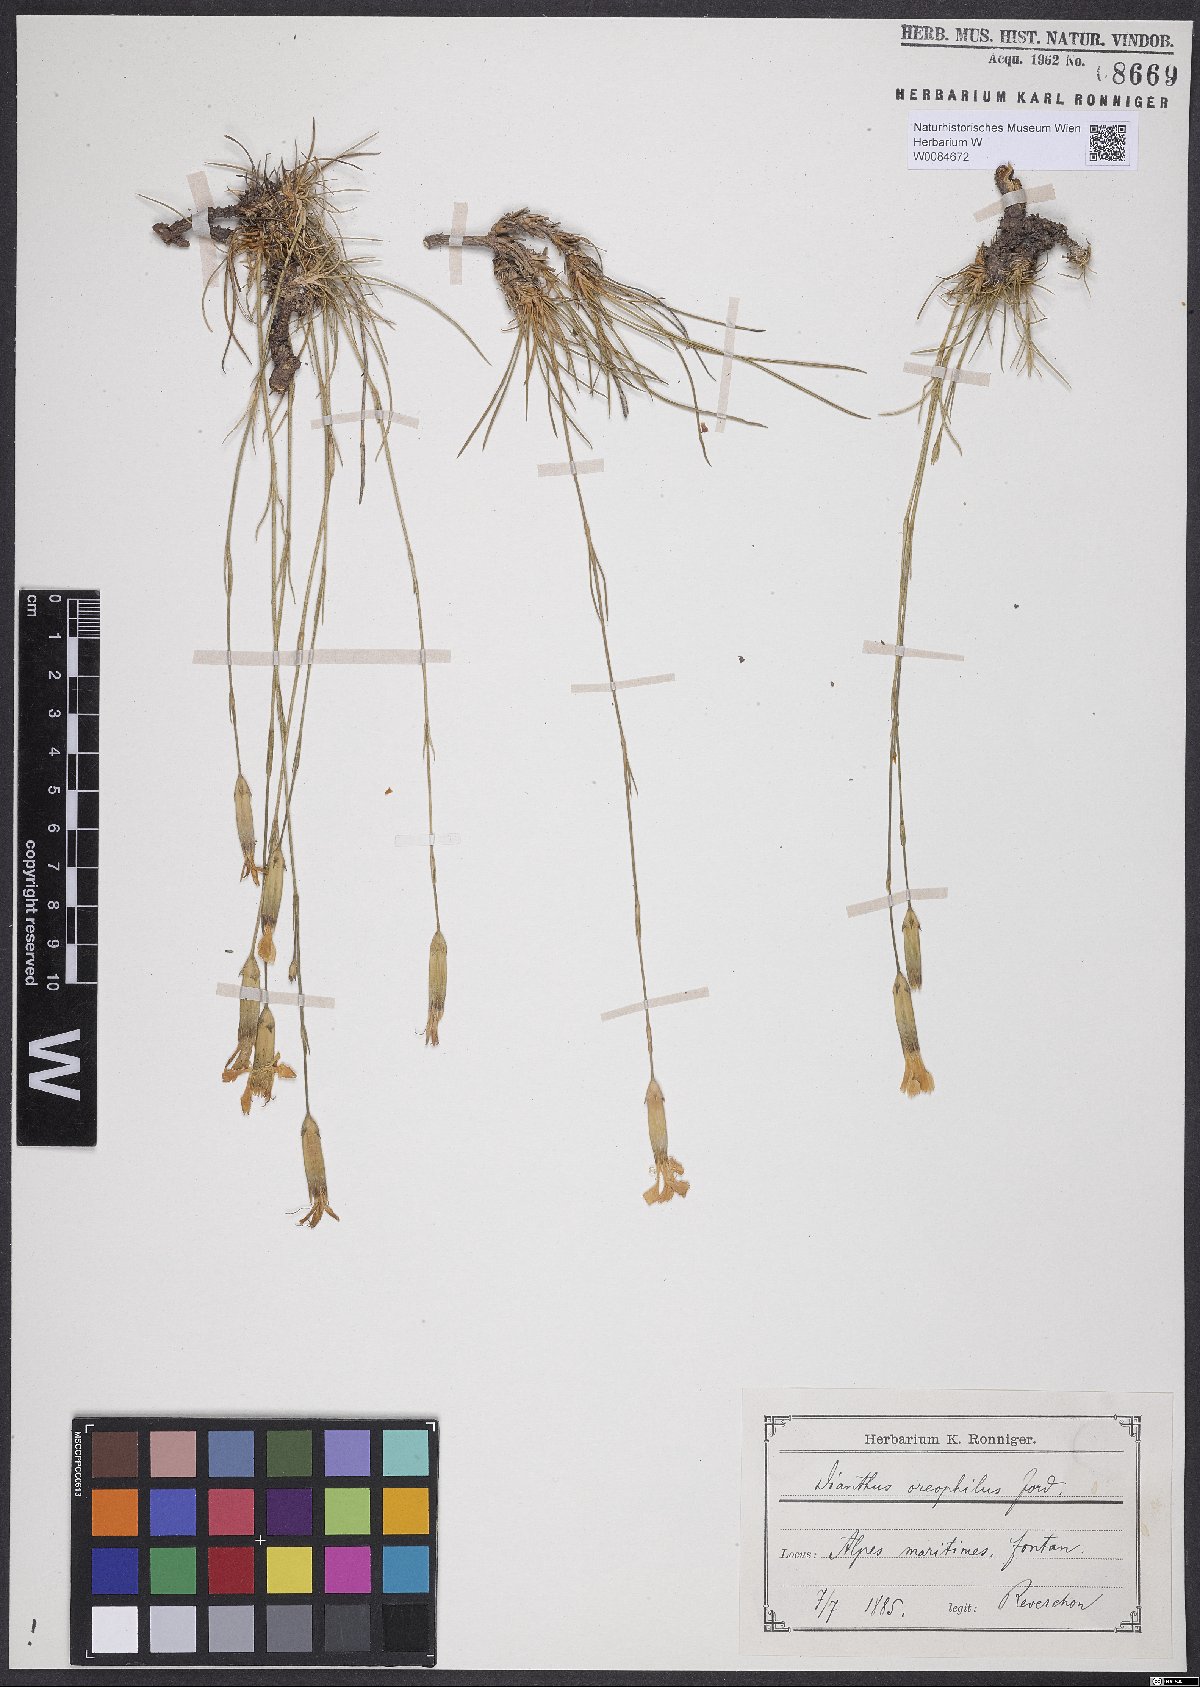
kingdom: Plantae
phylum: Tracheophyta
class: Magnoliopsida
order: Caryophyllales
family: Caryophyllaceae
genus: Dianthus
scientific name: Dianthus sylvestris
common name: Wood pink
